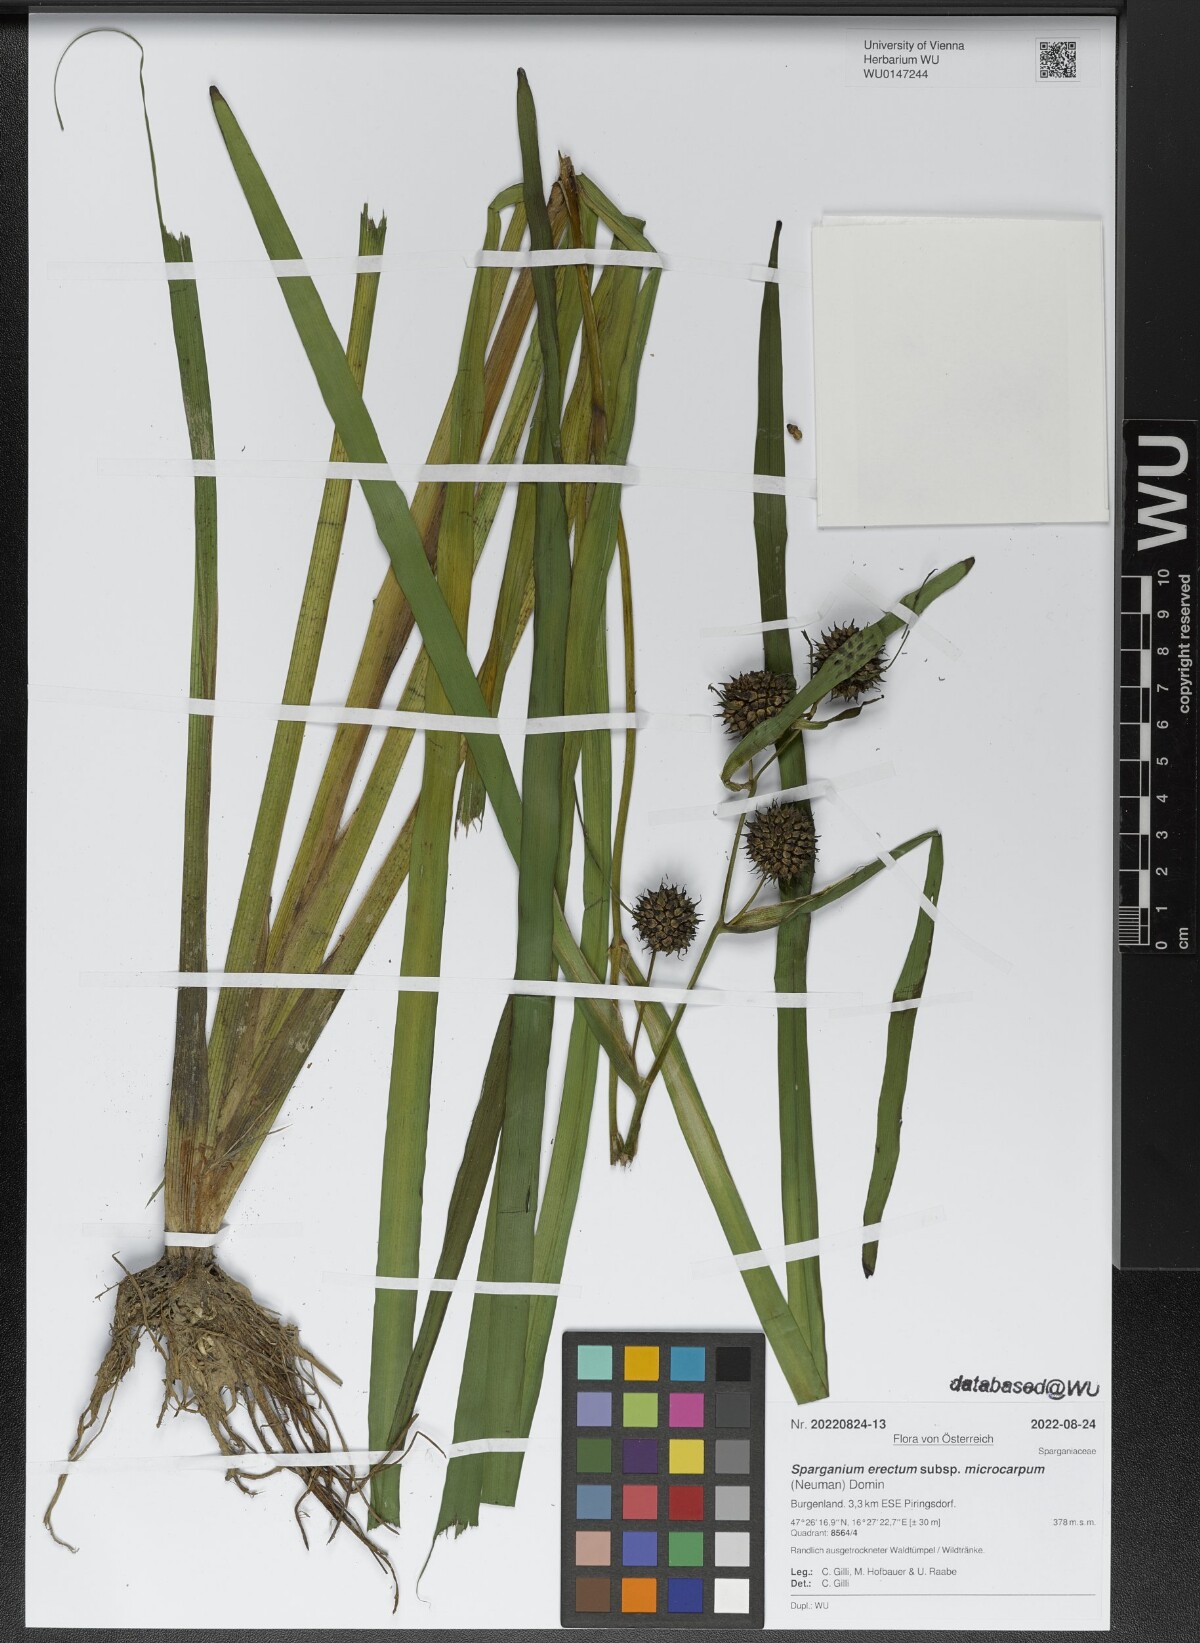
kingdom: Plantae
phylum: Tracheophyta
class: Liliopsida
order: Poales
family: Typhaceae
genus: Sparganium
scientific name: Sparganium erectum
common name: Branched bur-reed
